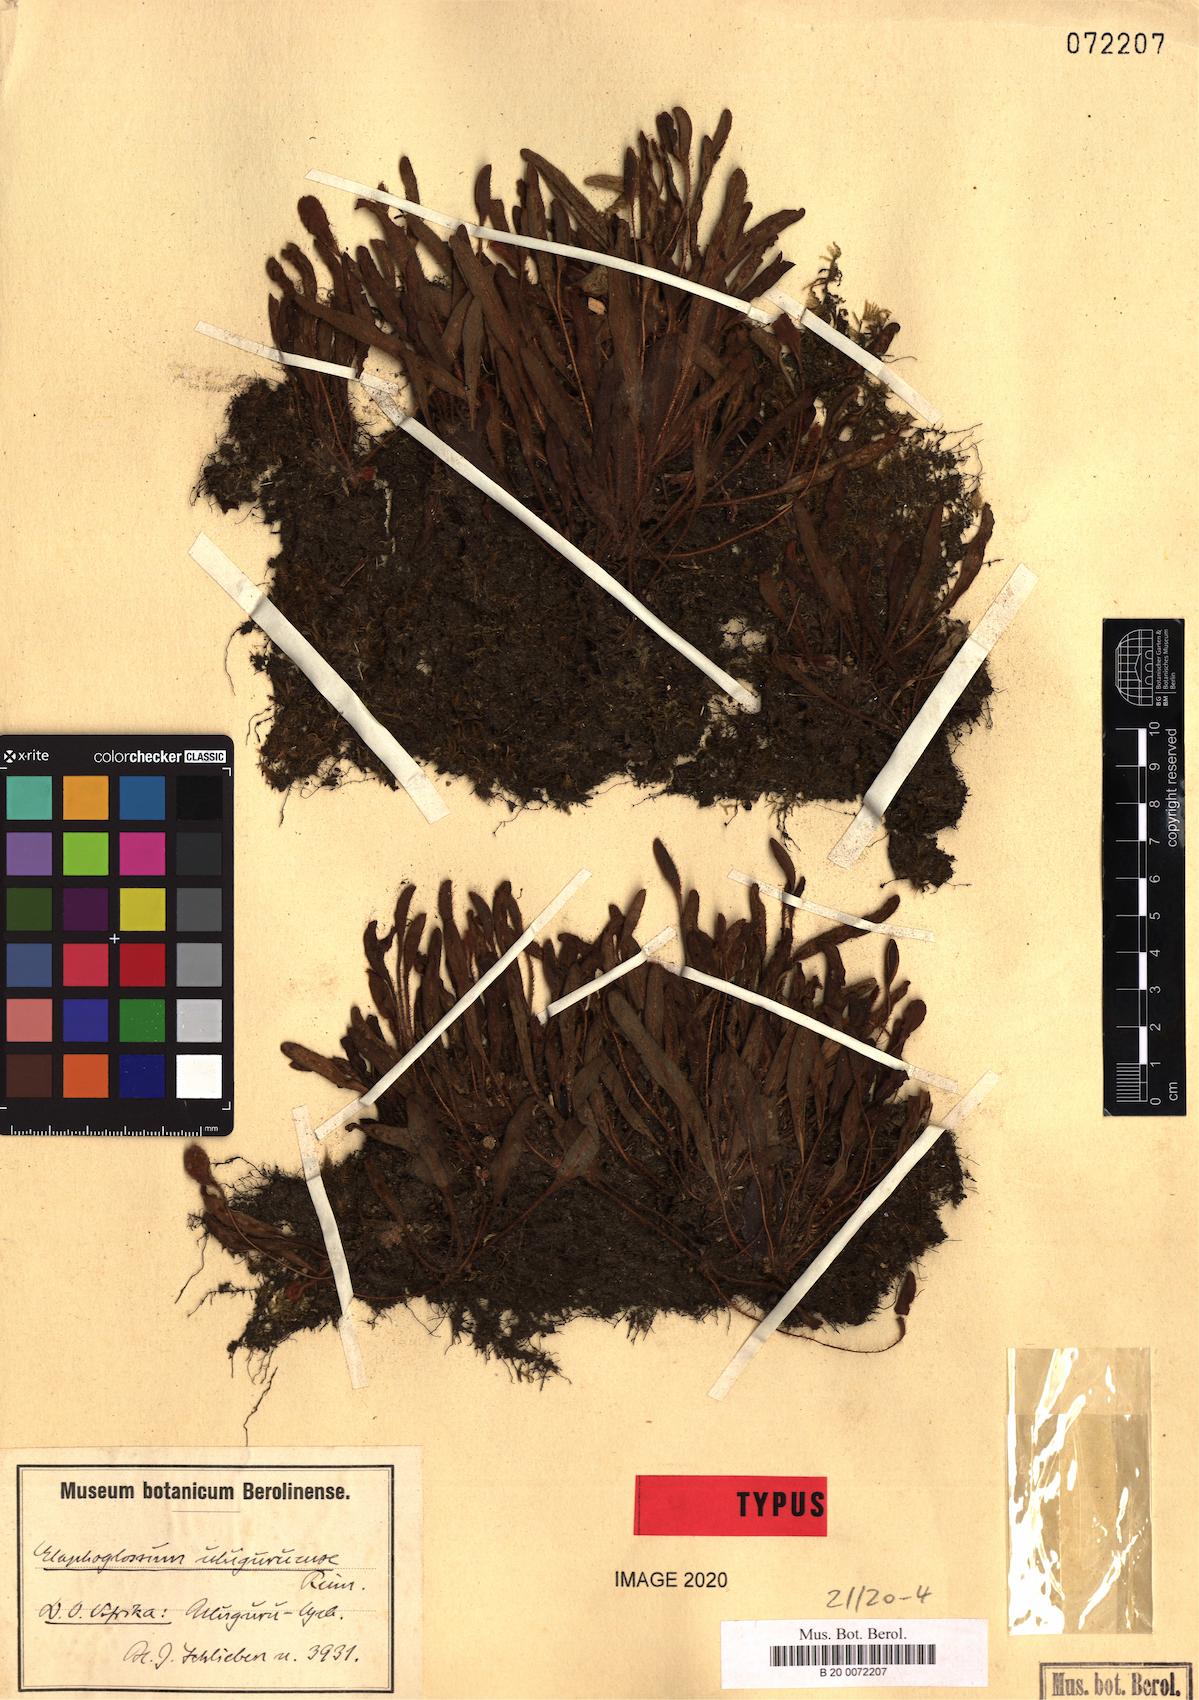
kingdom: Plantae
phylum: Tracheophyta
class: Polypodiopsida
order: Polypodiales
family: Dryopteridaceae
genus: Elaphoglossum
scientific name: Elaphoglossum spatulatum
